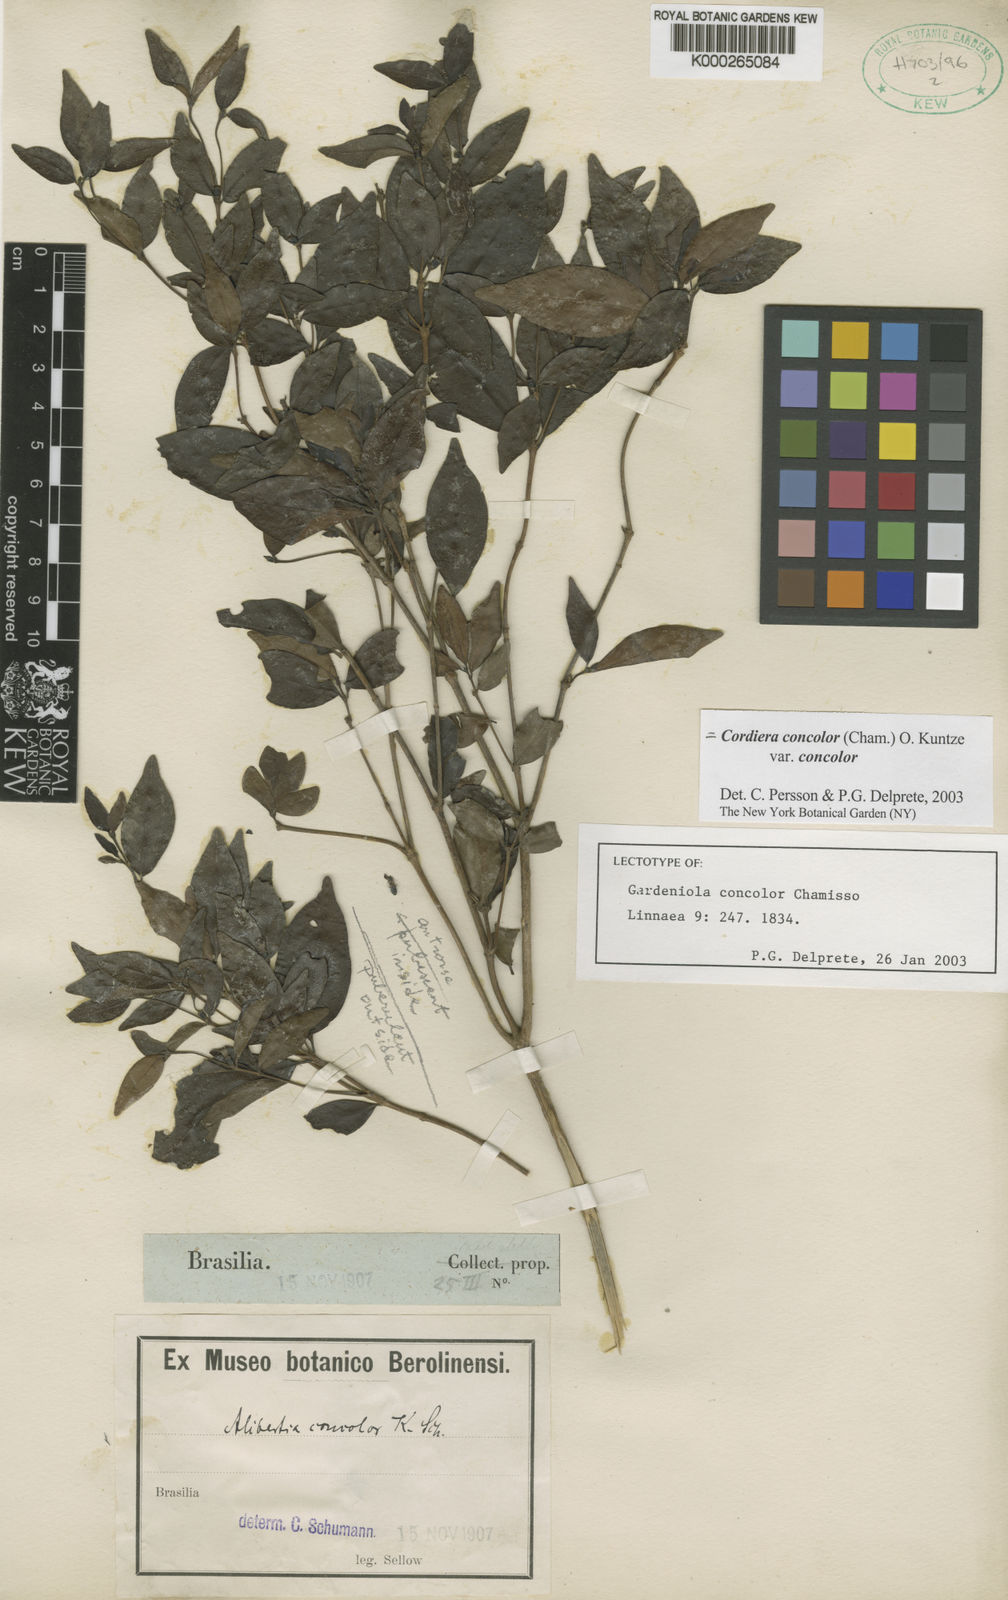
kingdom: Plantae
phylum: Tracheophyta
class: Magnoliopsida
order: Gentianales
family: Rubiaceae
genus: Cordiera
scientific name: Cordiera concolor
